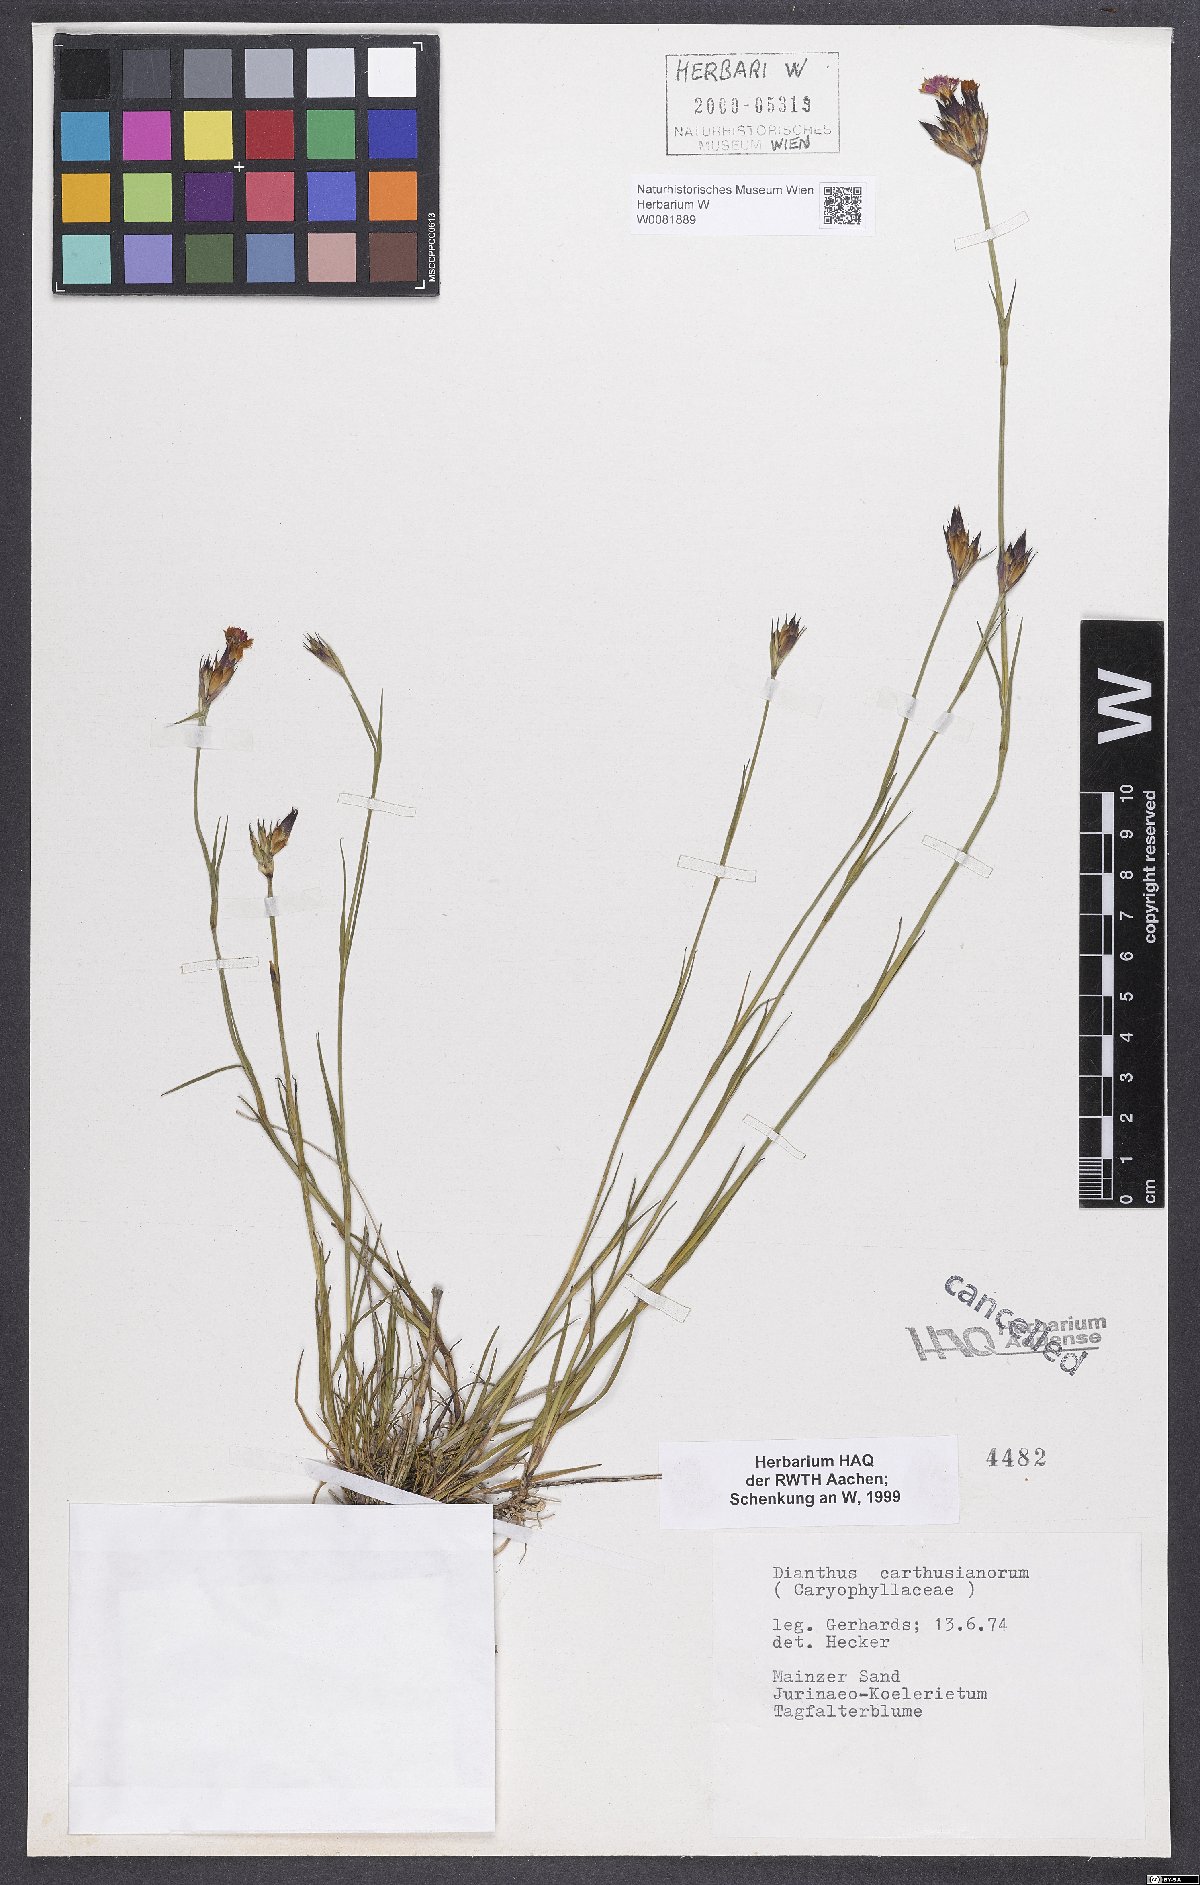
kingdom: Plantae
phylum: Tracheophyta
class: Magnoliopsida
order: Caryophyllales
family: Caryophyllaceae
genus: Dianthus
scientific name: Dianthus carthusianorum
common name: Carthusian pink
